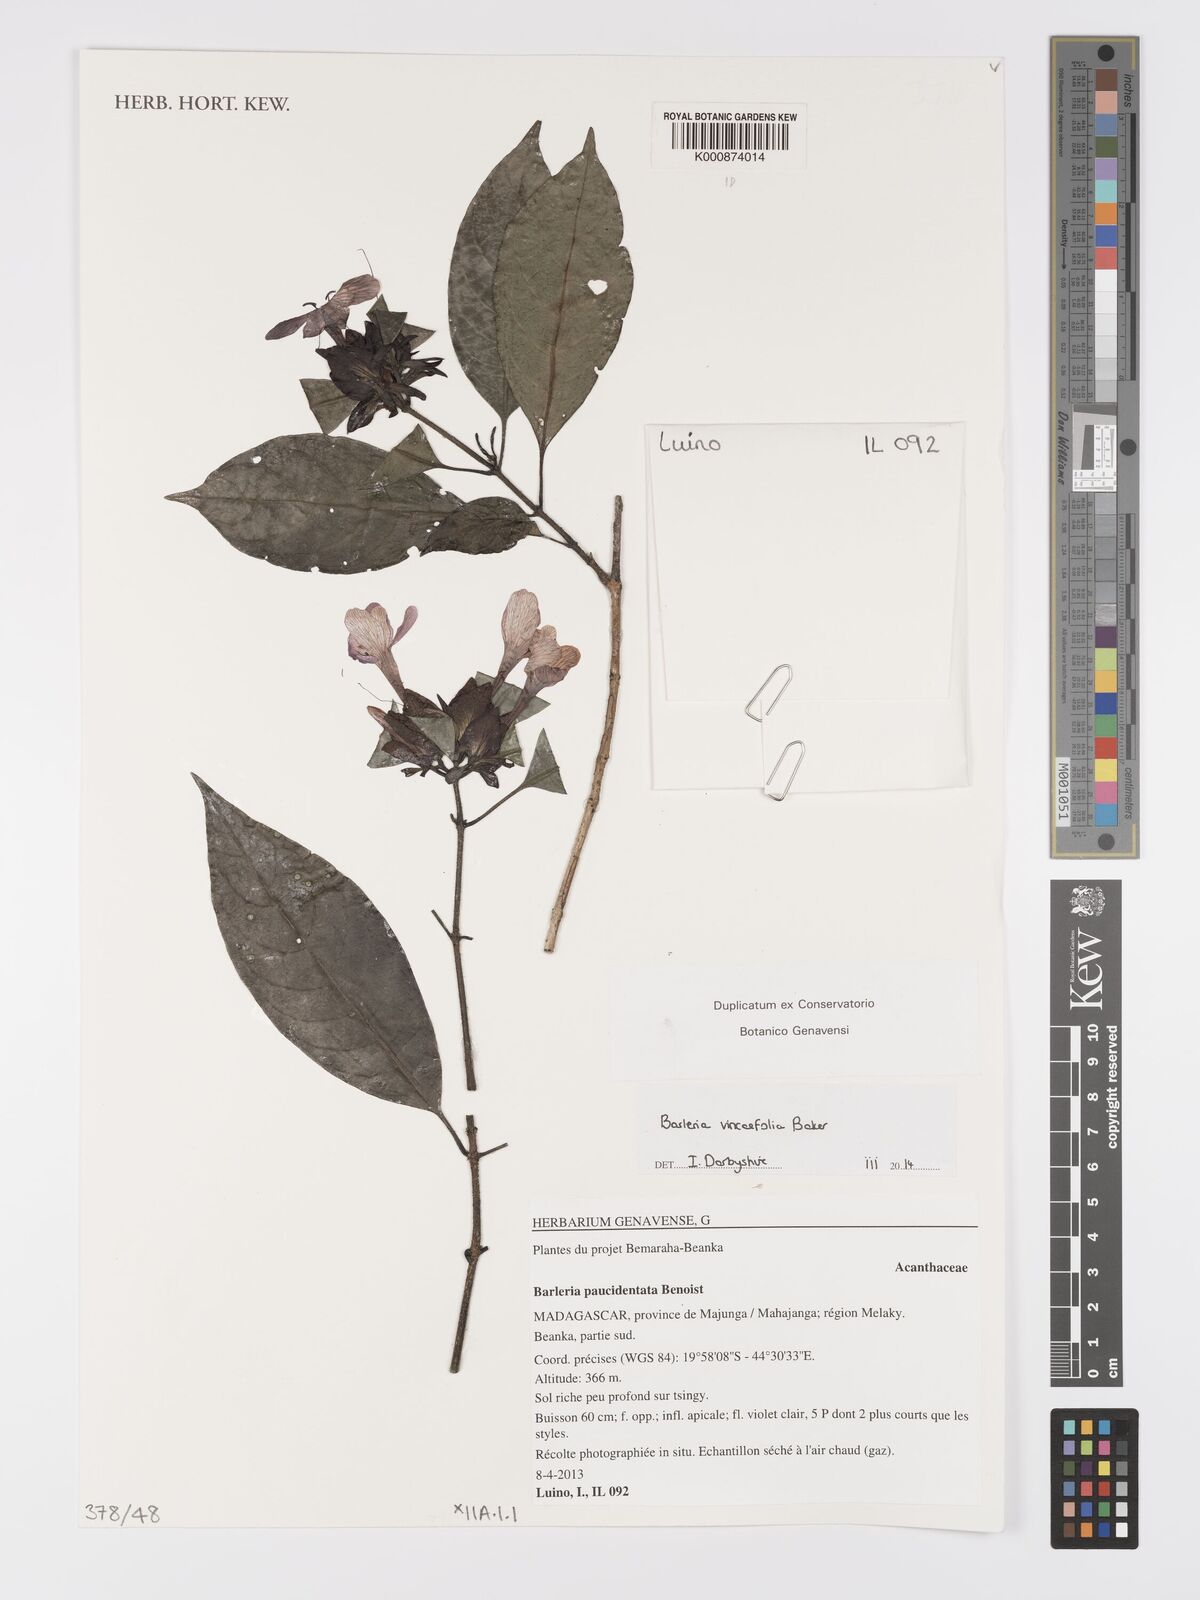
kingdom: Plantae
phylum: Tracheophyta
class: Magnoliopsida
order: Lamiales
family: Acanthaceae
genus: Barleria
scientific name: Barleria vincifolia
